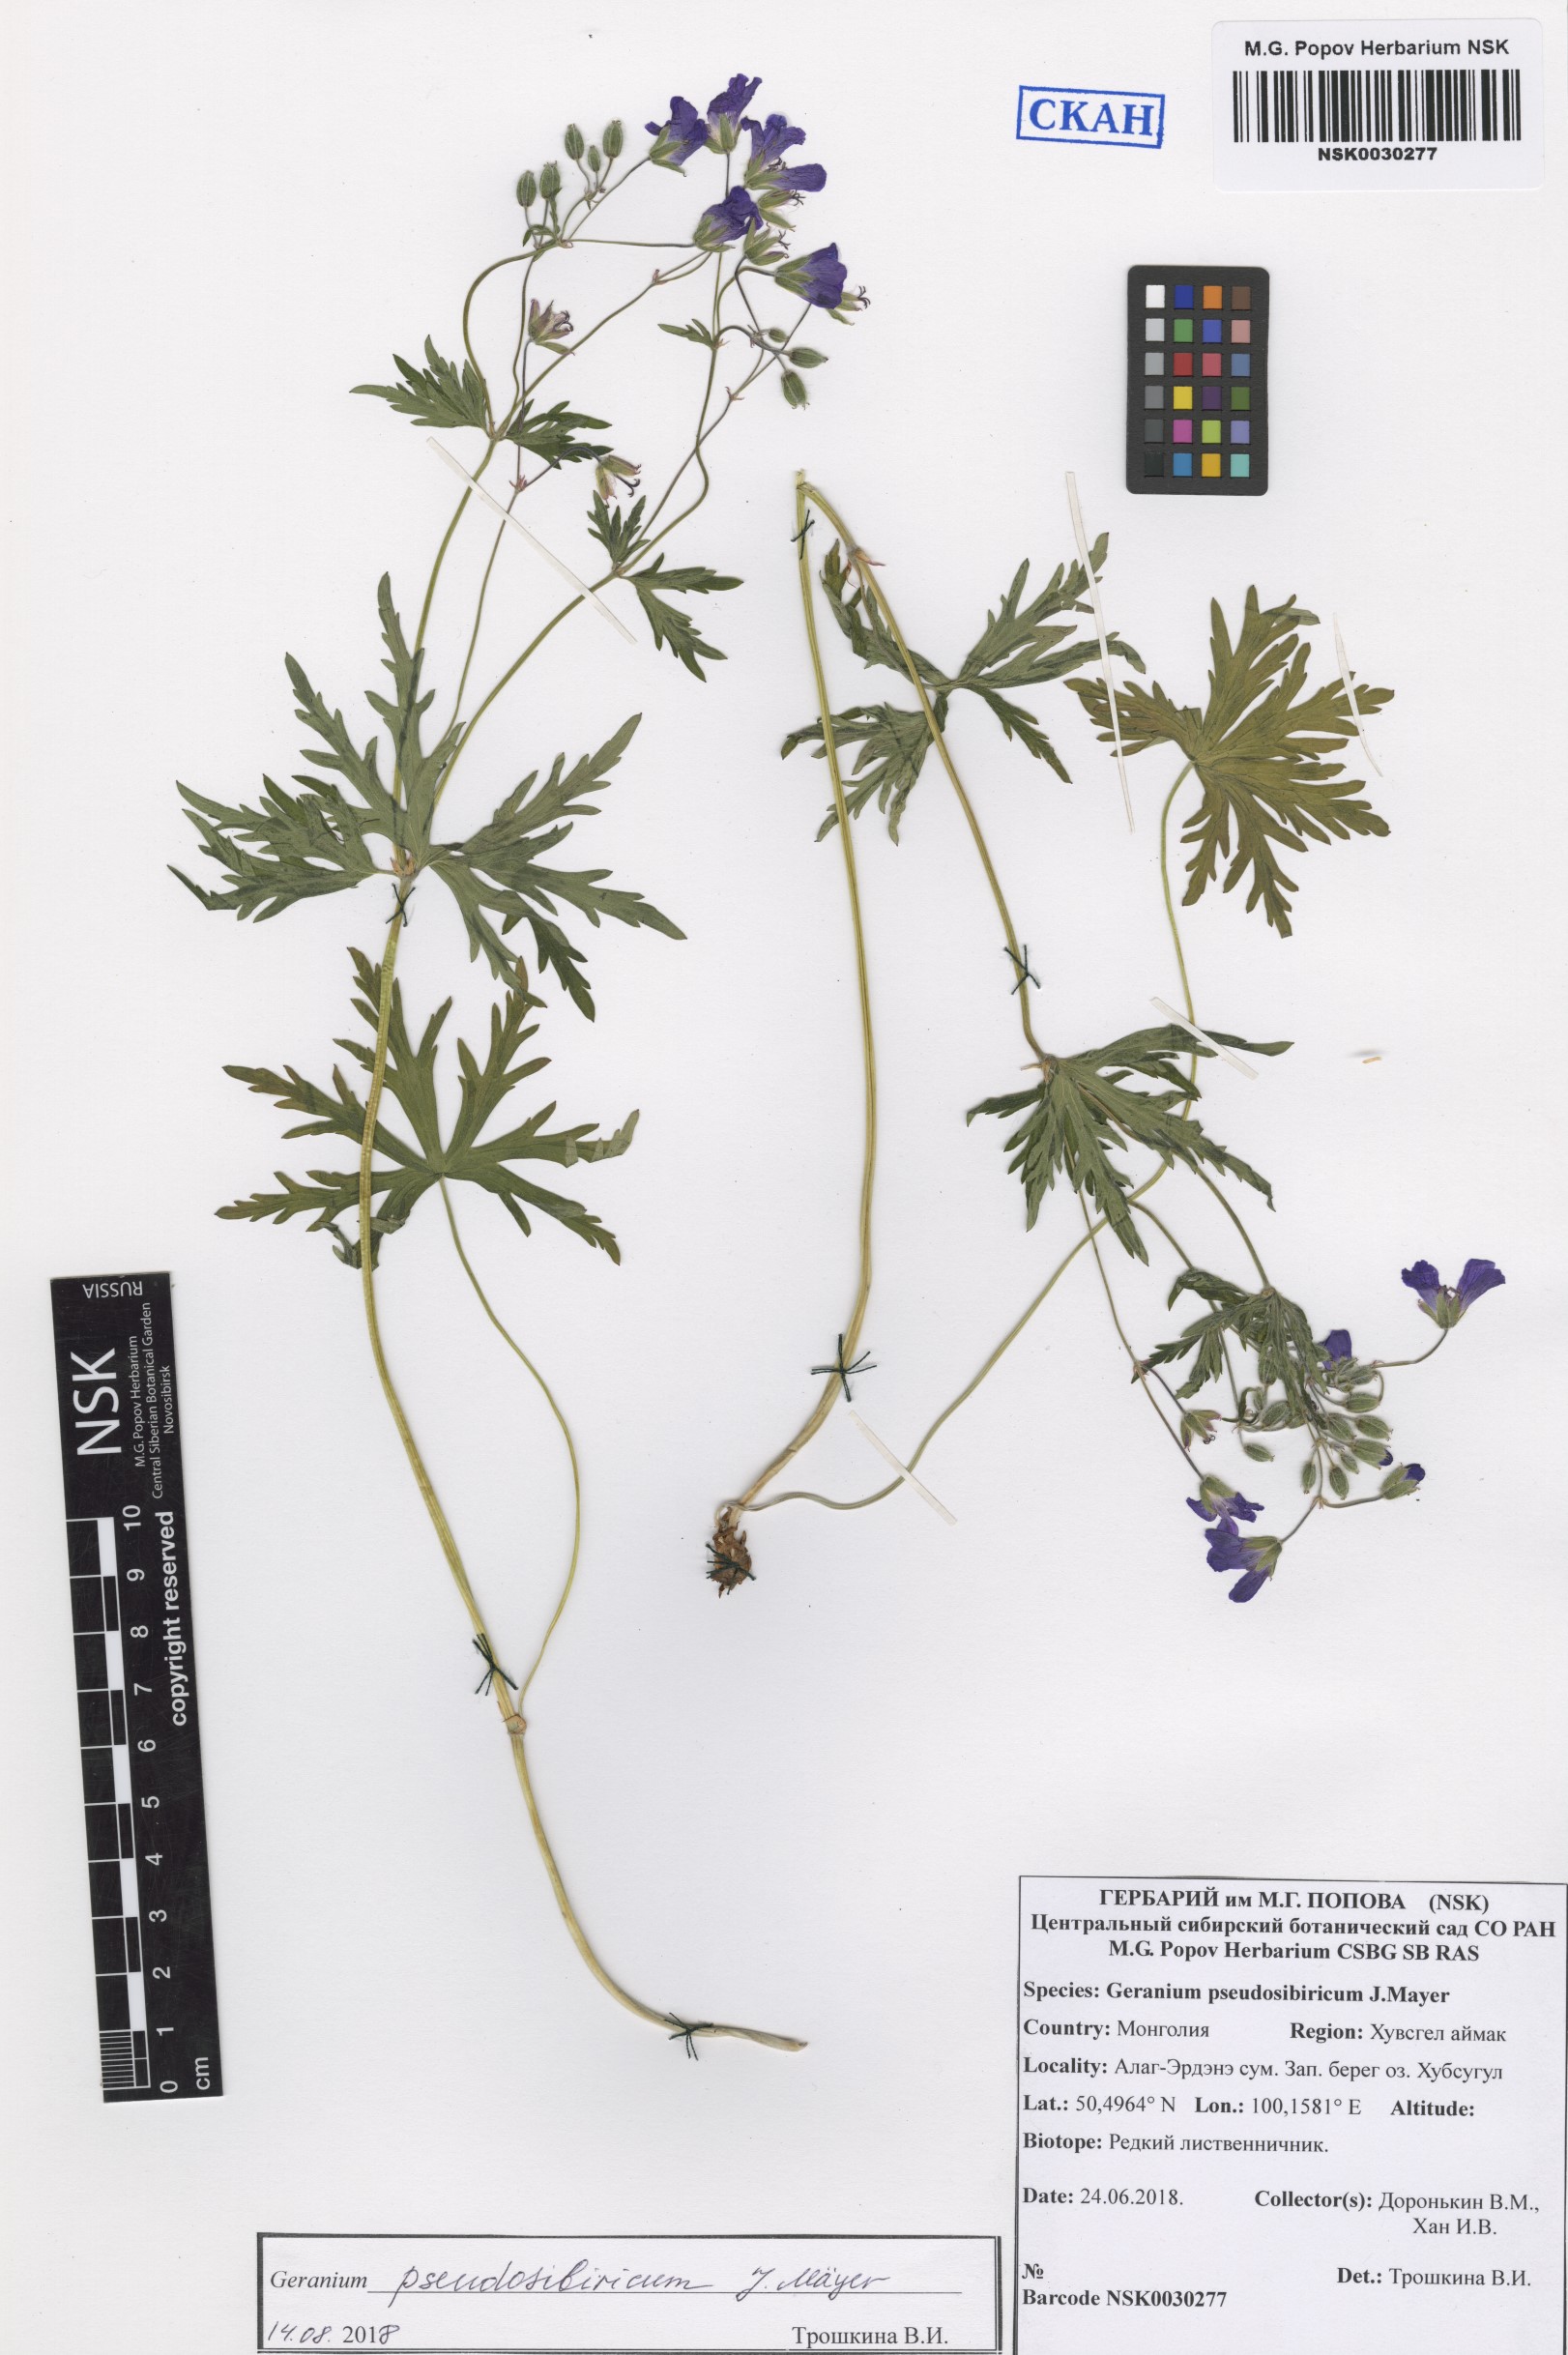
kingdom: Plantae
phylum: Tracheophyta
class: Magnoliopsida
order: Geraniales
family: Geraniaceae
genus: Geranium
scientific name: Geranium pseudosibiricum
